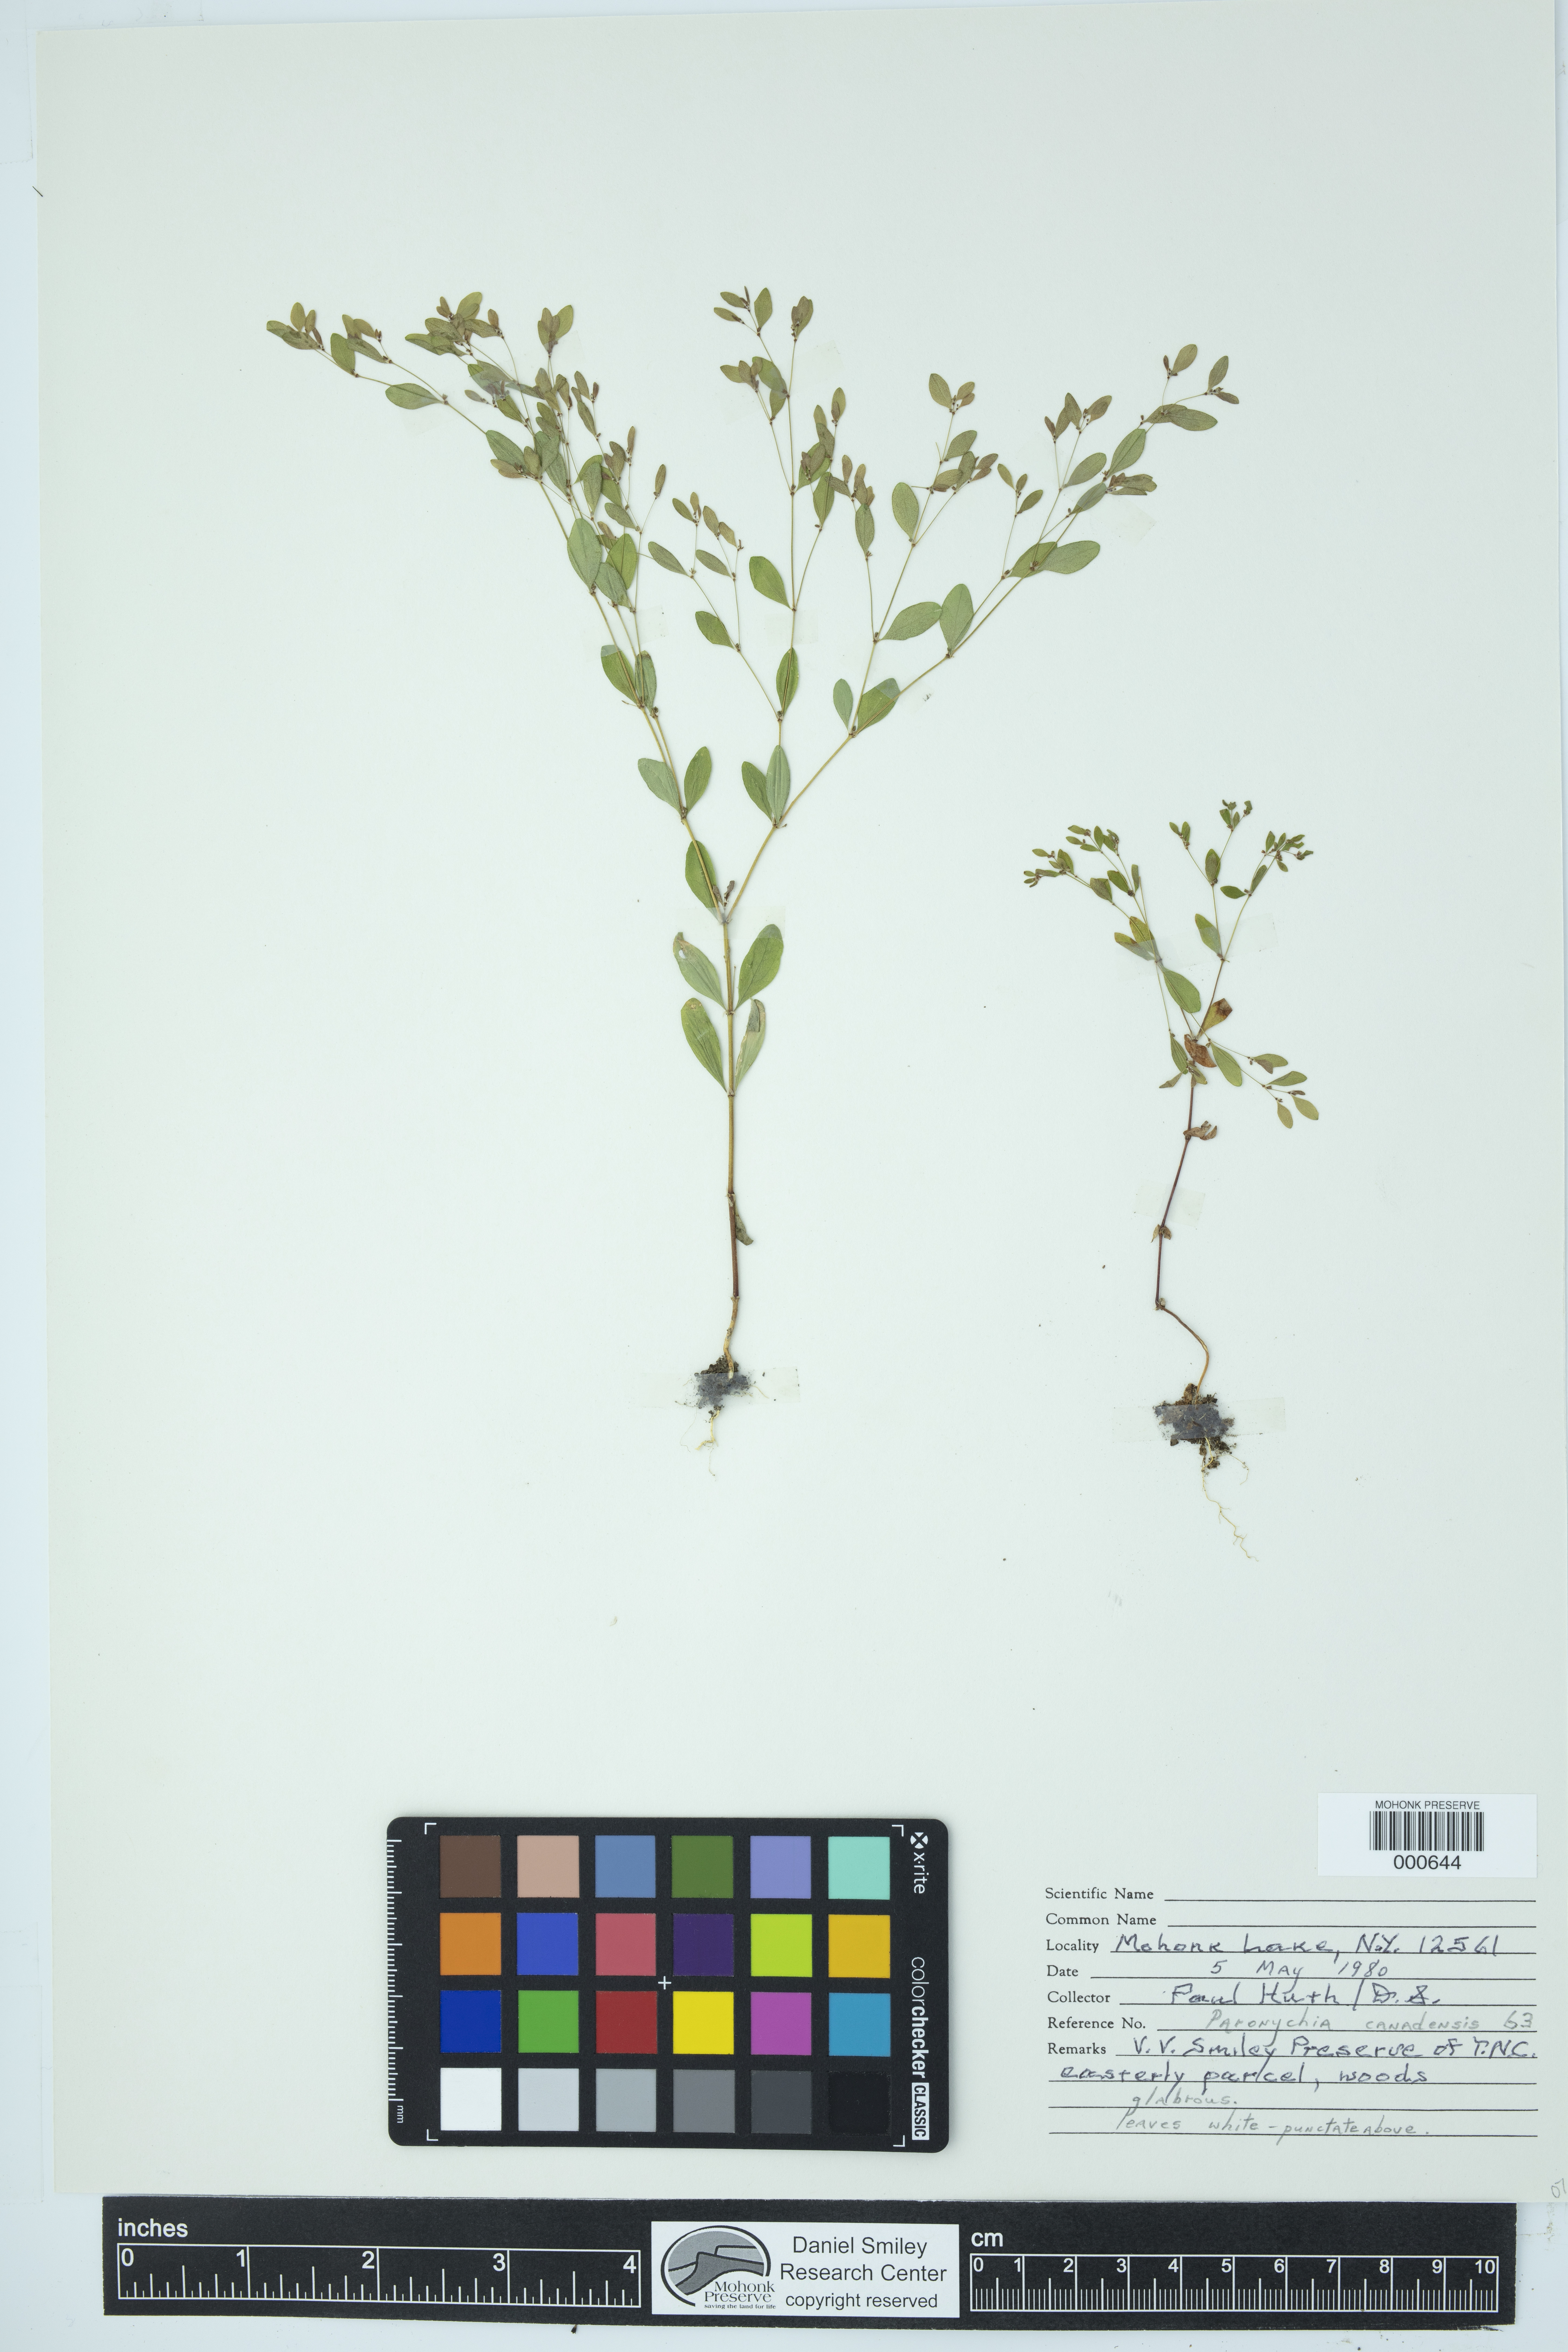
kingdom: Plantae
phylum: Tracheophyta
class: Magnoliopsida
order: Caryophyllales
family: Caryophyllaceae
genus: Paronychia
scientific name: Paronychia canadensis
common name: Canada forked nailwort
